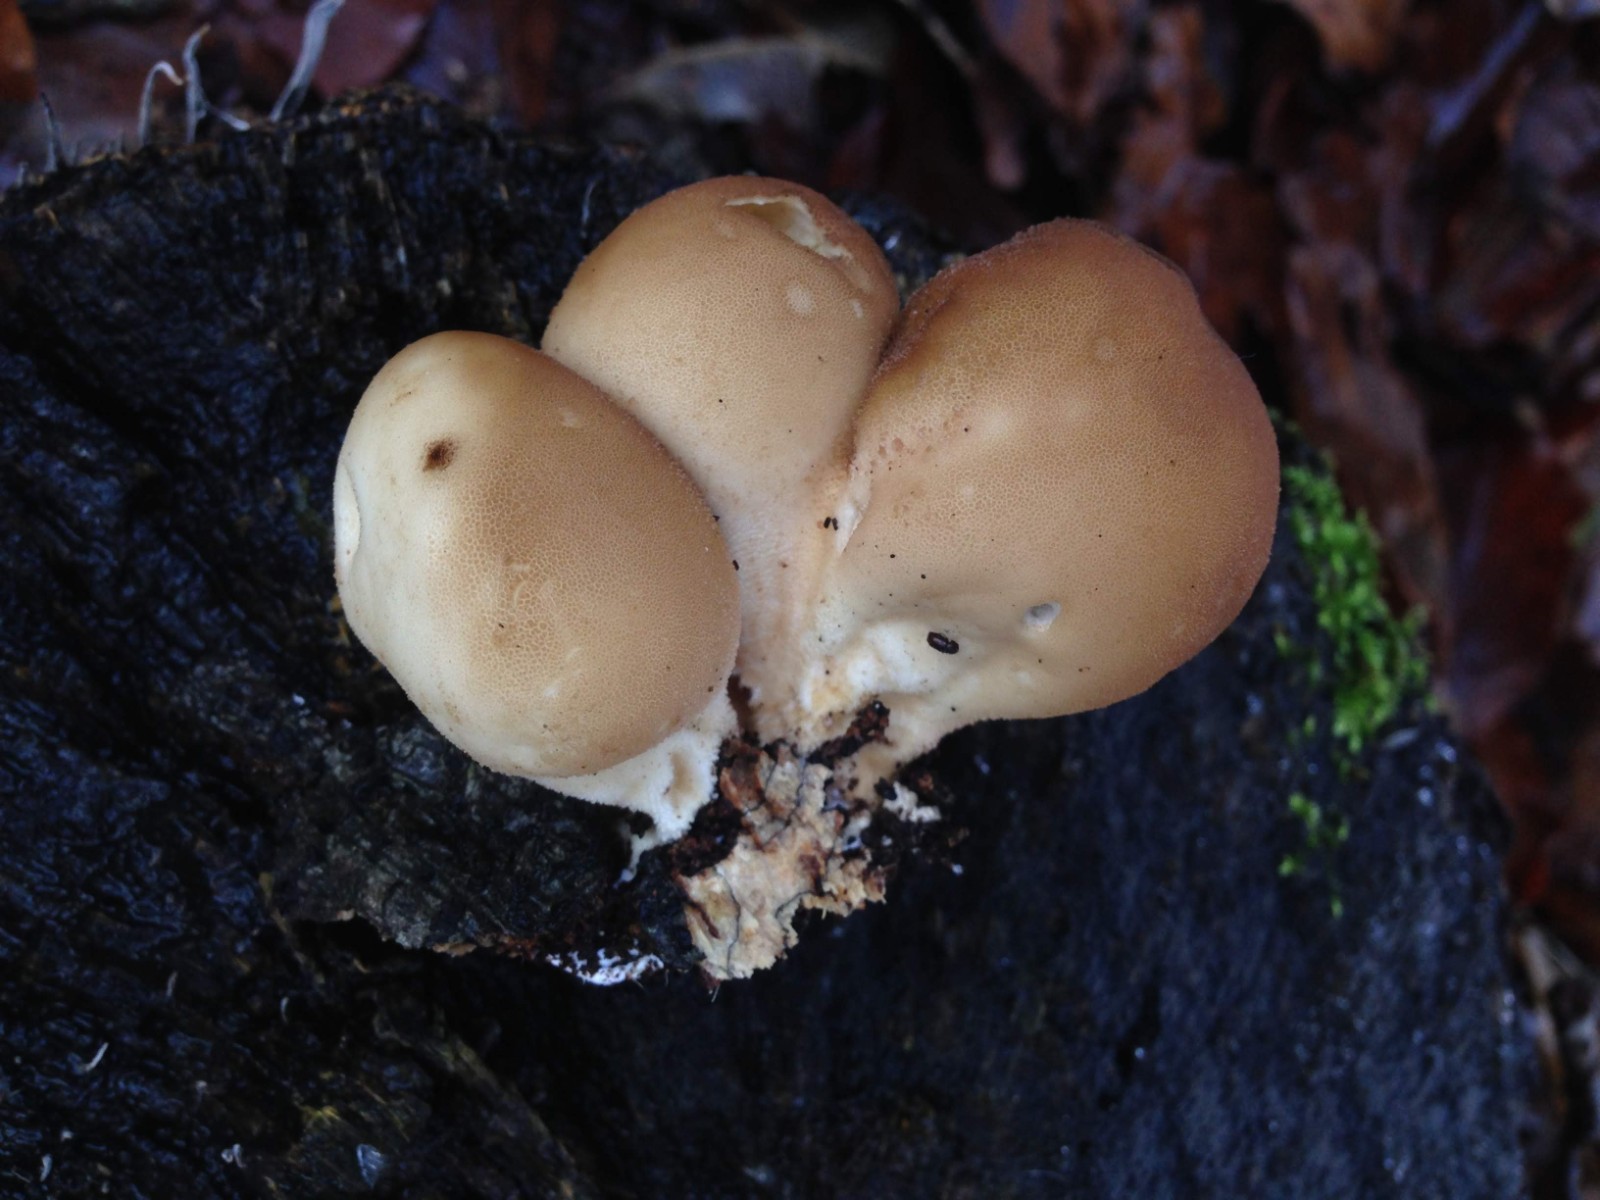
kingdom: Fungi
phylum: Basidiomycota
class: Agaricomycetes
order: Agaricales
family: Lycoperdaceae
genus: Apioperdon
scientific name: Apioperdon pyriforme
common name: pære-støvbold
